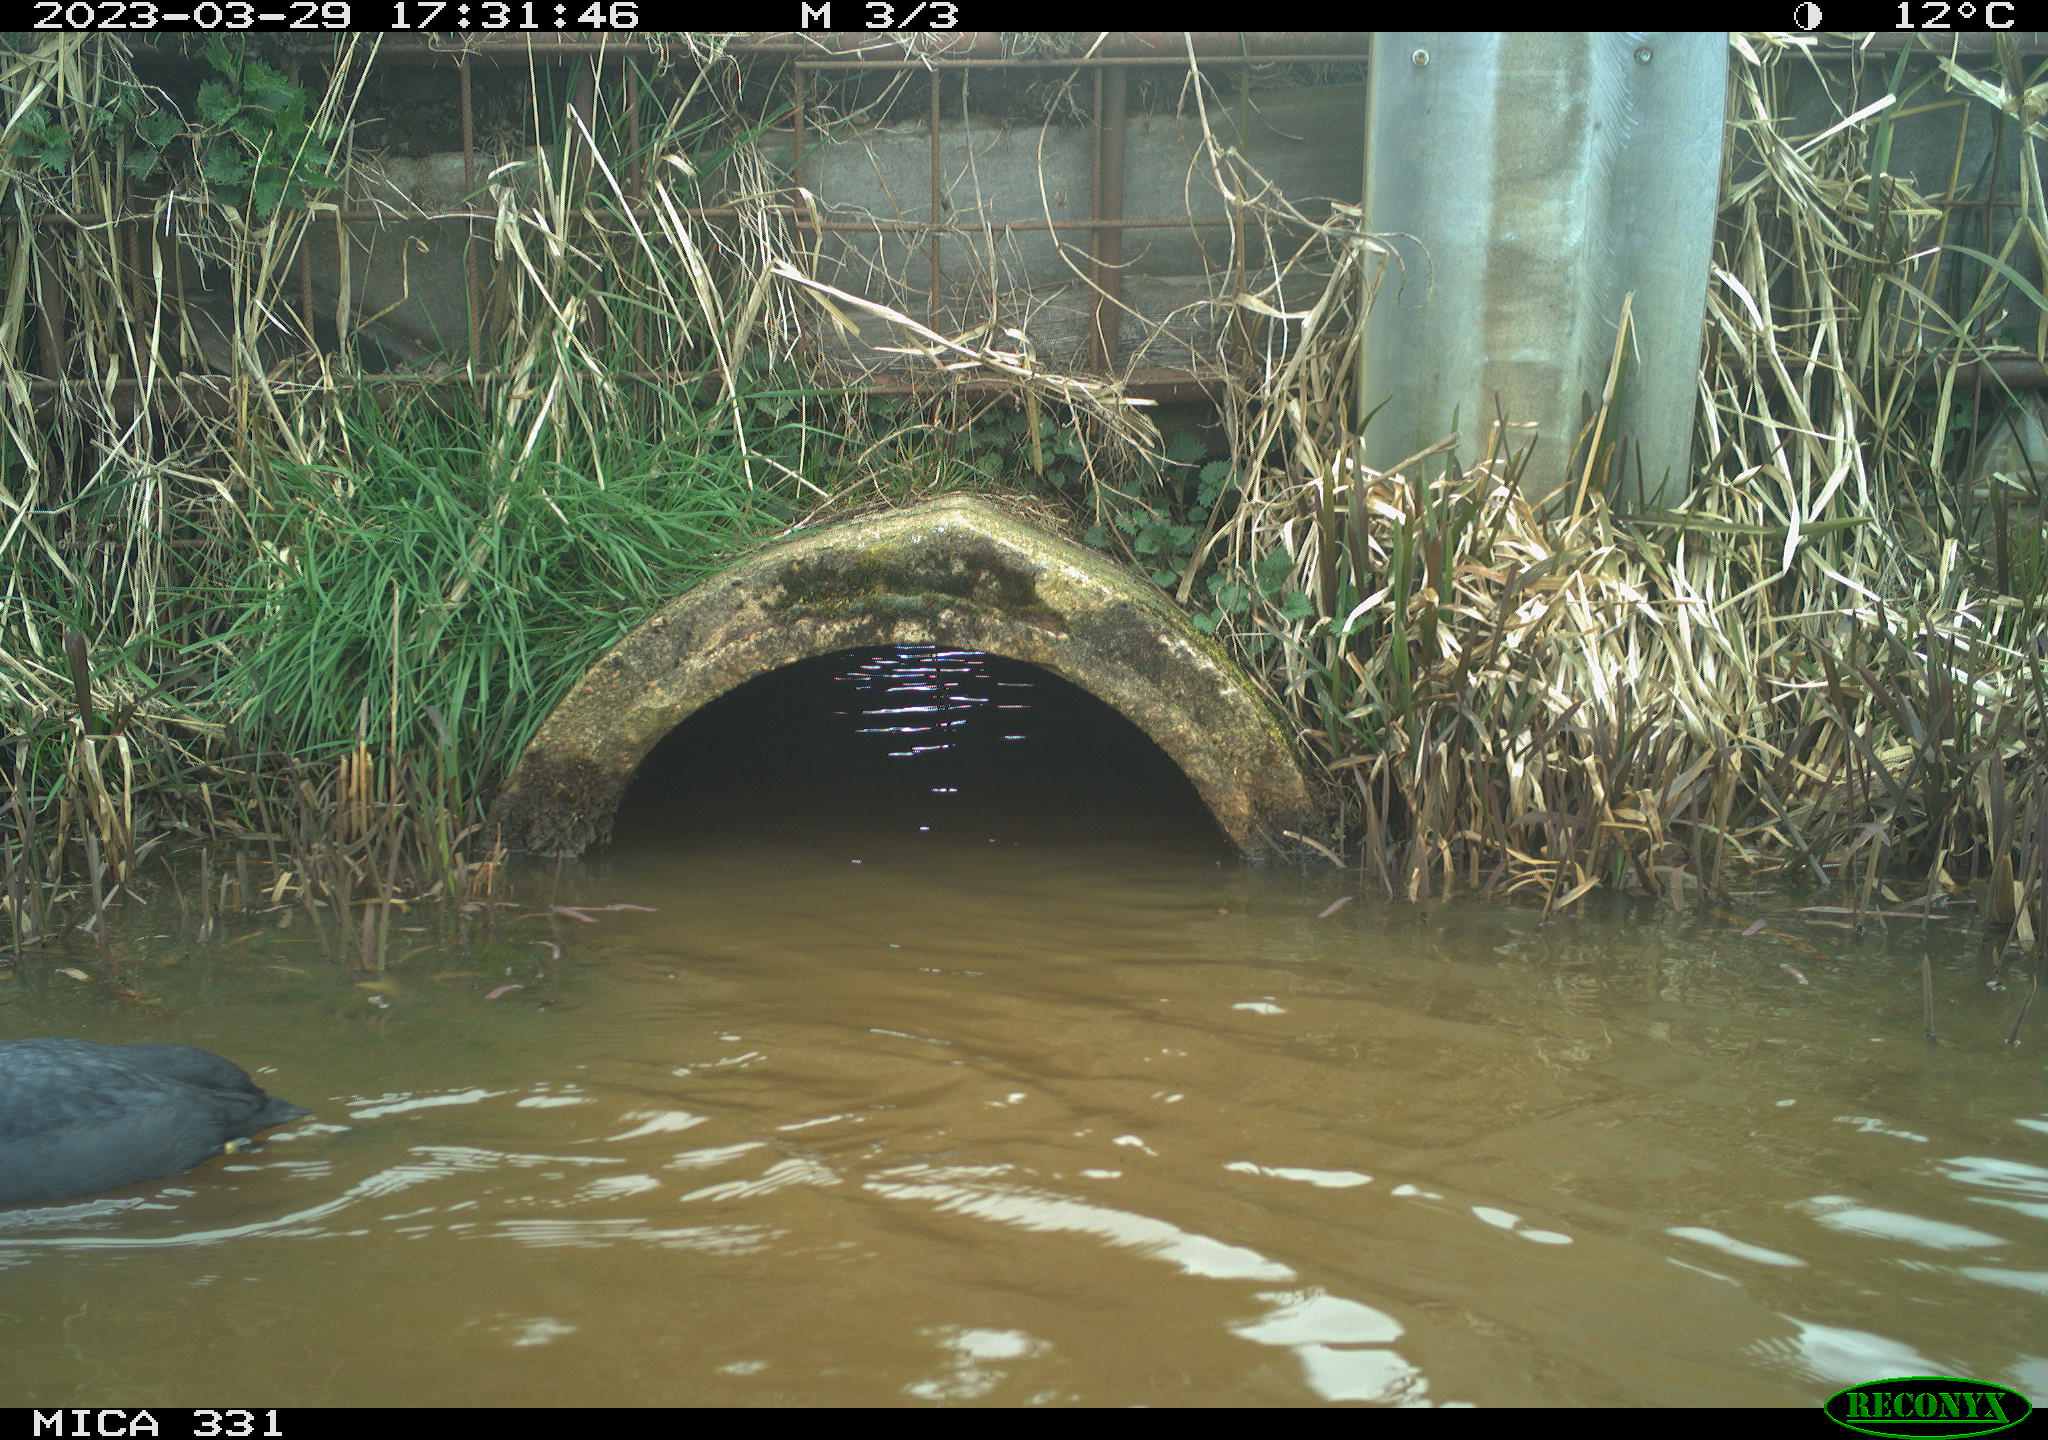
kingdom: Animalia
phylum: Chordata
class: Aves
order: Gruiformes
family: Rallidae
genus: Fulica
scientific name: Fulica atra
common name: Eurasian coot
